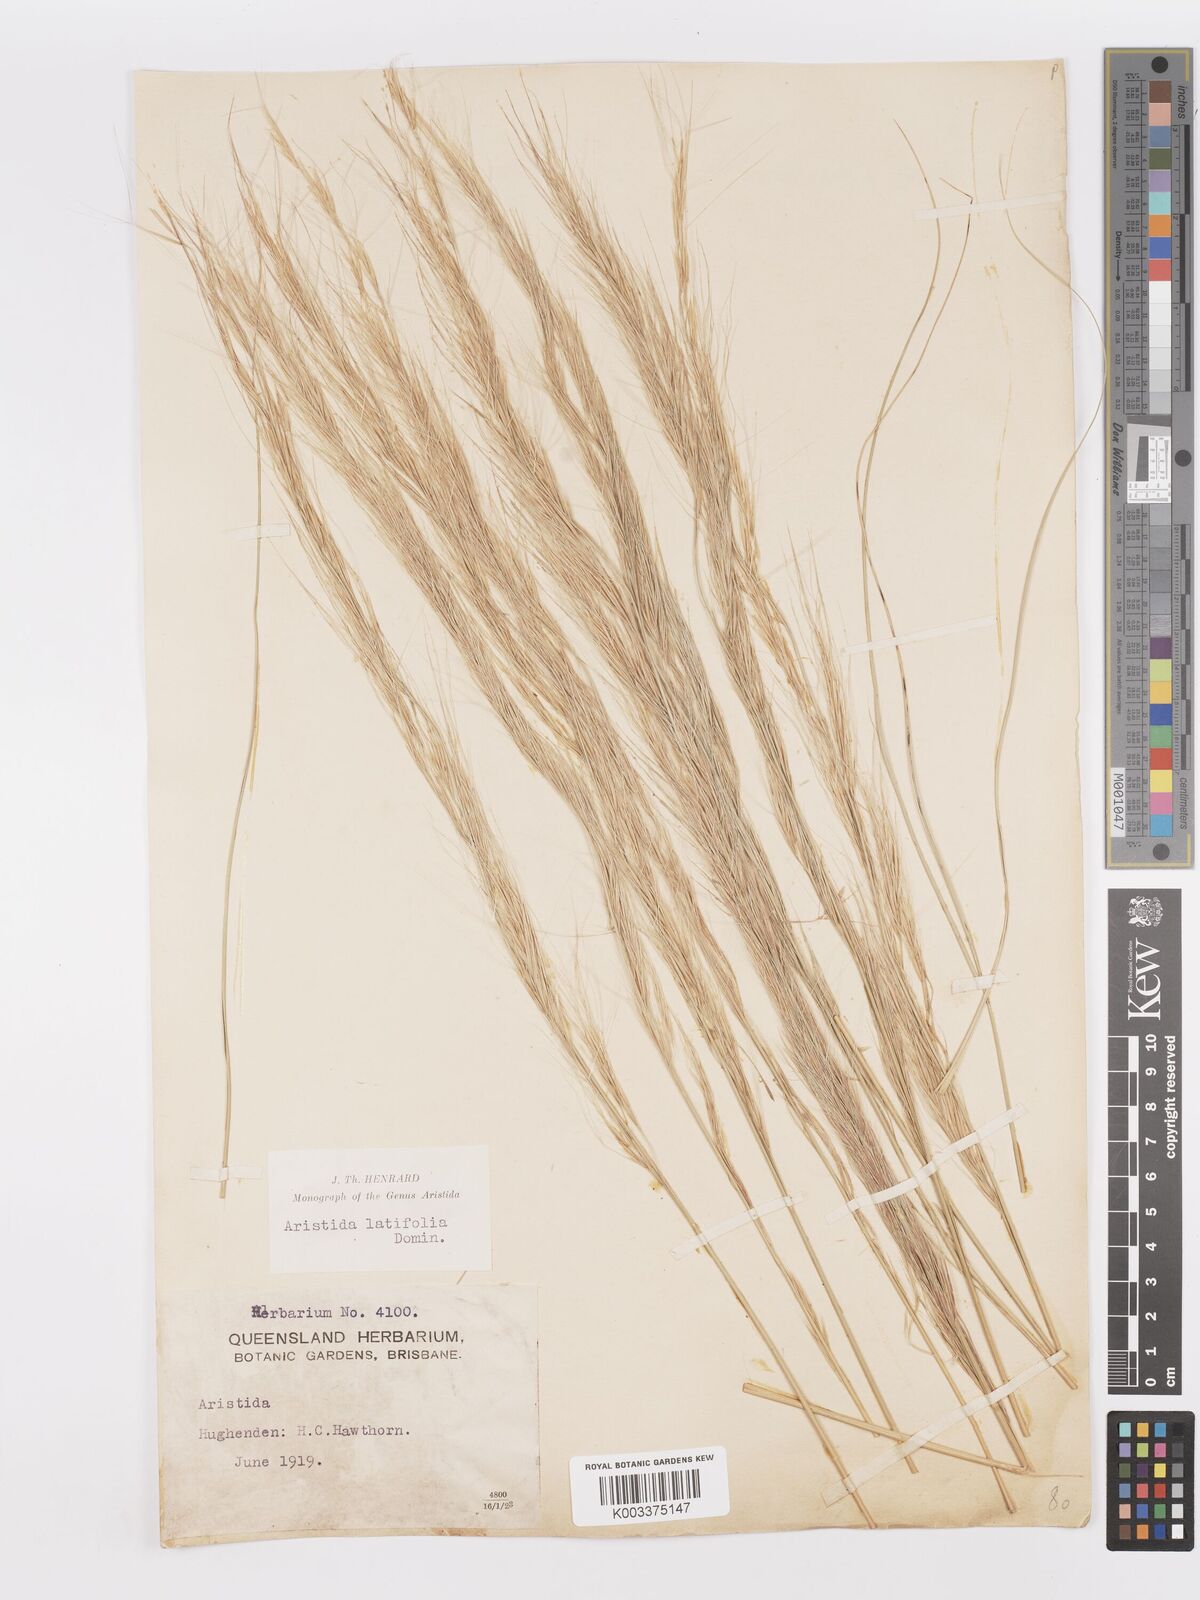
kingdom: Plantae
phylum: Tracheophyta
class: Liliopsida
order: Poales
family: Poaceae
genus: Aristida
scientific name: Aristida latifolia
